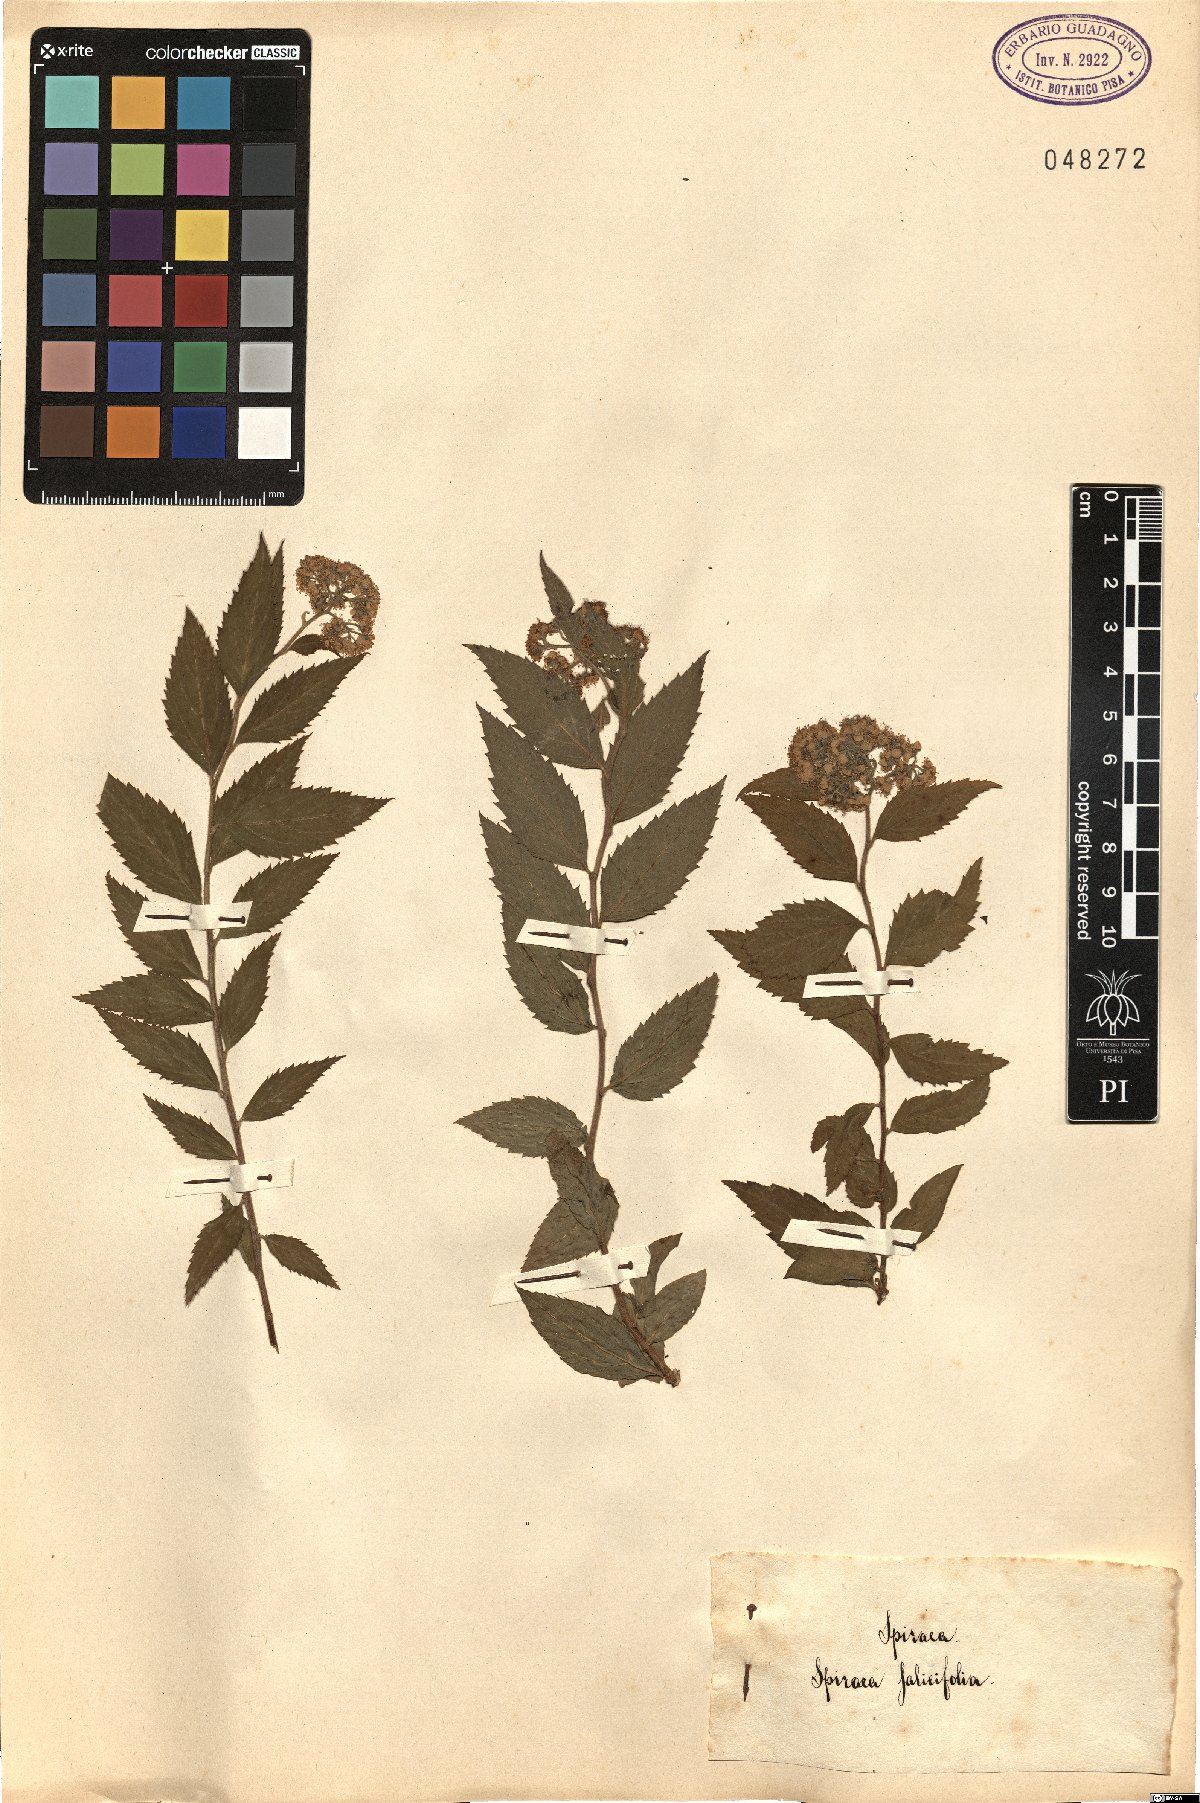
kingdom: Plantae
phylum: Tracheophyta
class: Magnoliopsida
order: Rosales
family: Rosaceae
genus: Spiraea
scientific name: Spiraea salicifolia
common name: Bridewort
